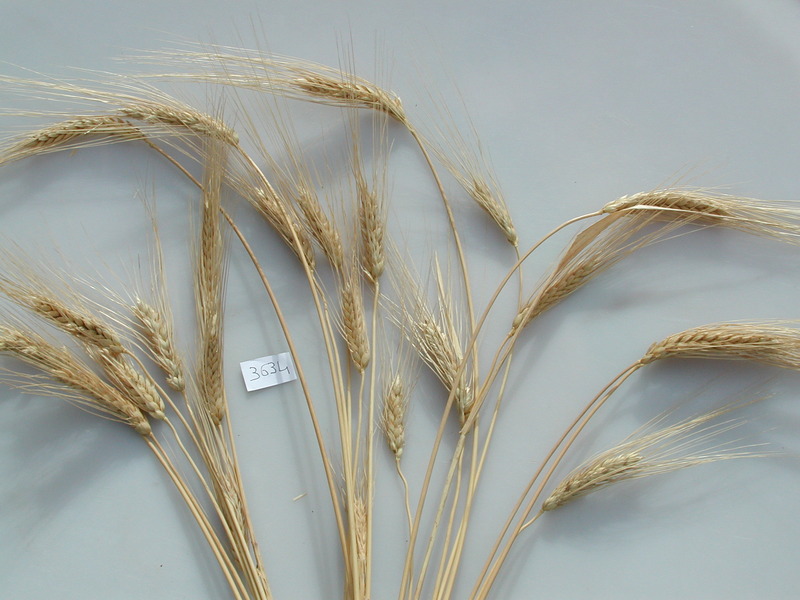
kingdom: Plantae
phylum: Tracheophyta
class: Liliopsida
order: Poales
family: Poaceae
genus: Triticum
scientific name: Triticum turgidum
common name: Wheat
